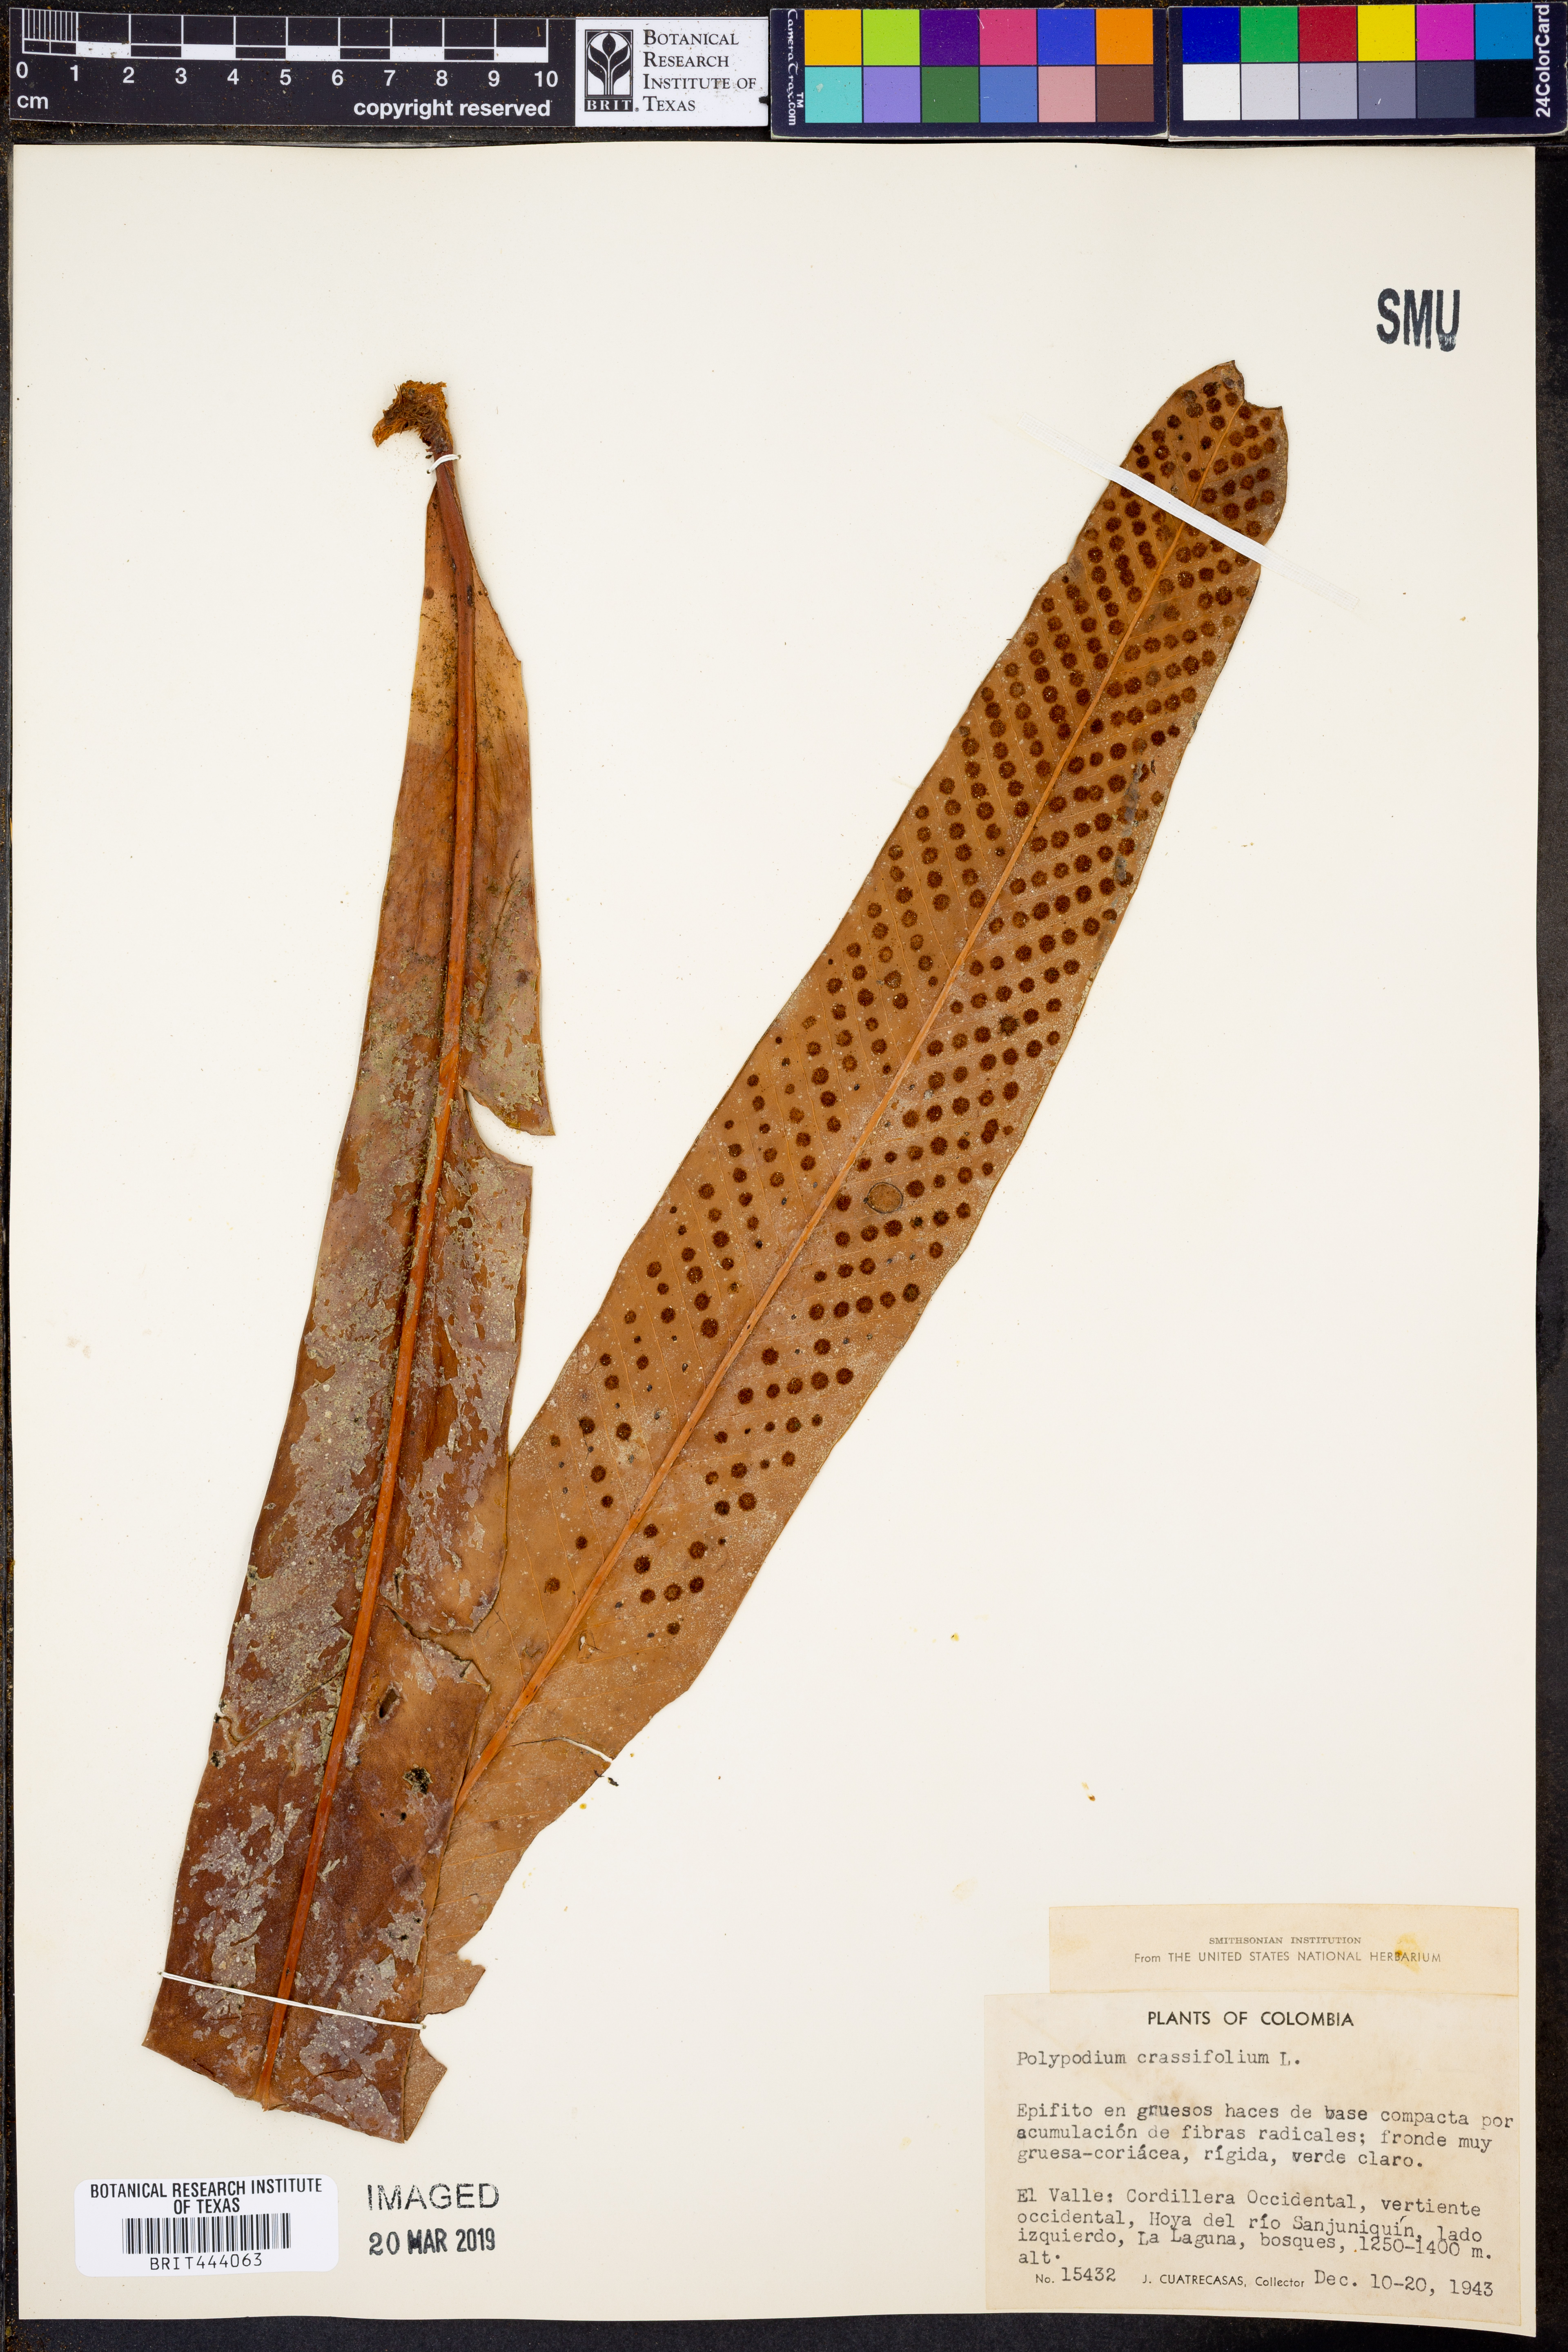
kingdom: Plantae
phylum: Tracheophyta
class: Polypodiopsida
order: Polypodiales
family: Polypodiaceae
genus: Niphidium
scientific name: Niphidium crassifolium
